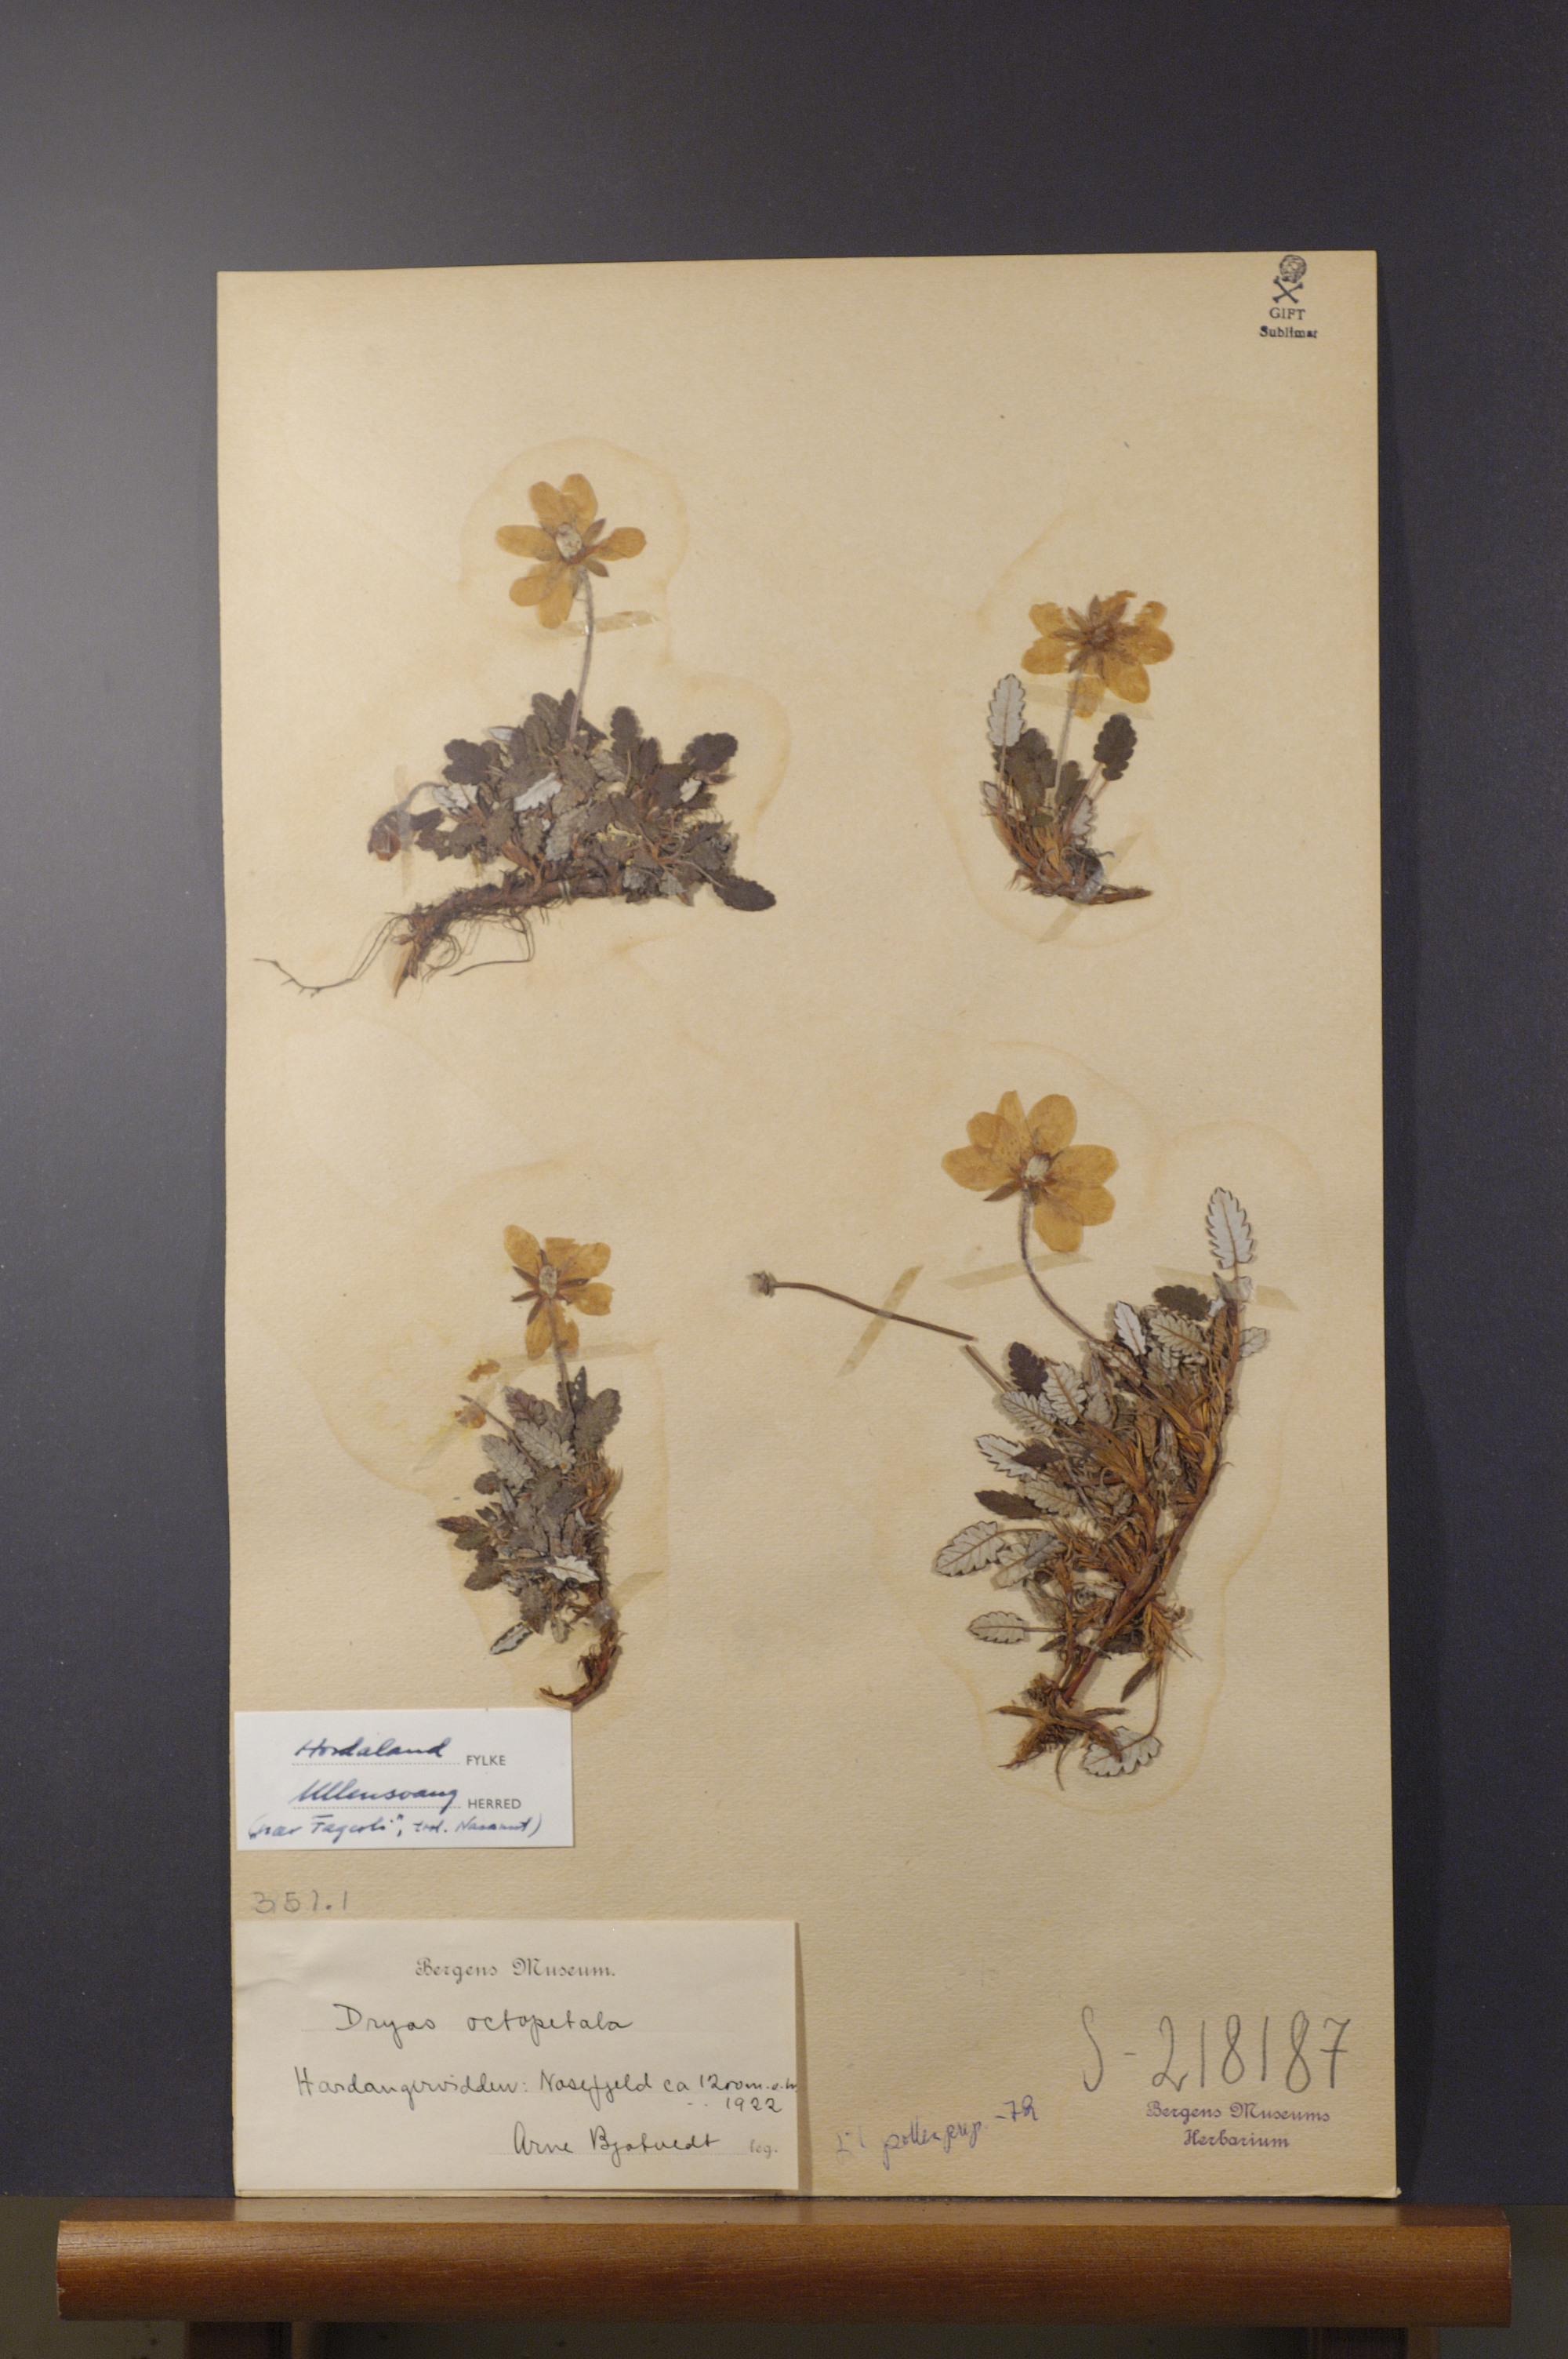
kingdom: Plantae
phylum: Tracheophyta
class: Magnoliopsida
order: Rosales
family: Rosaceae
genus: Dryas
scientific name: Dryas octopetala
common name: Eight-petal mountain-avens
